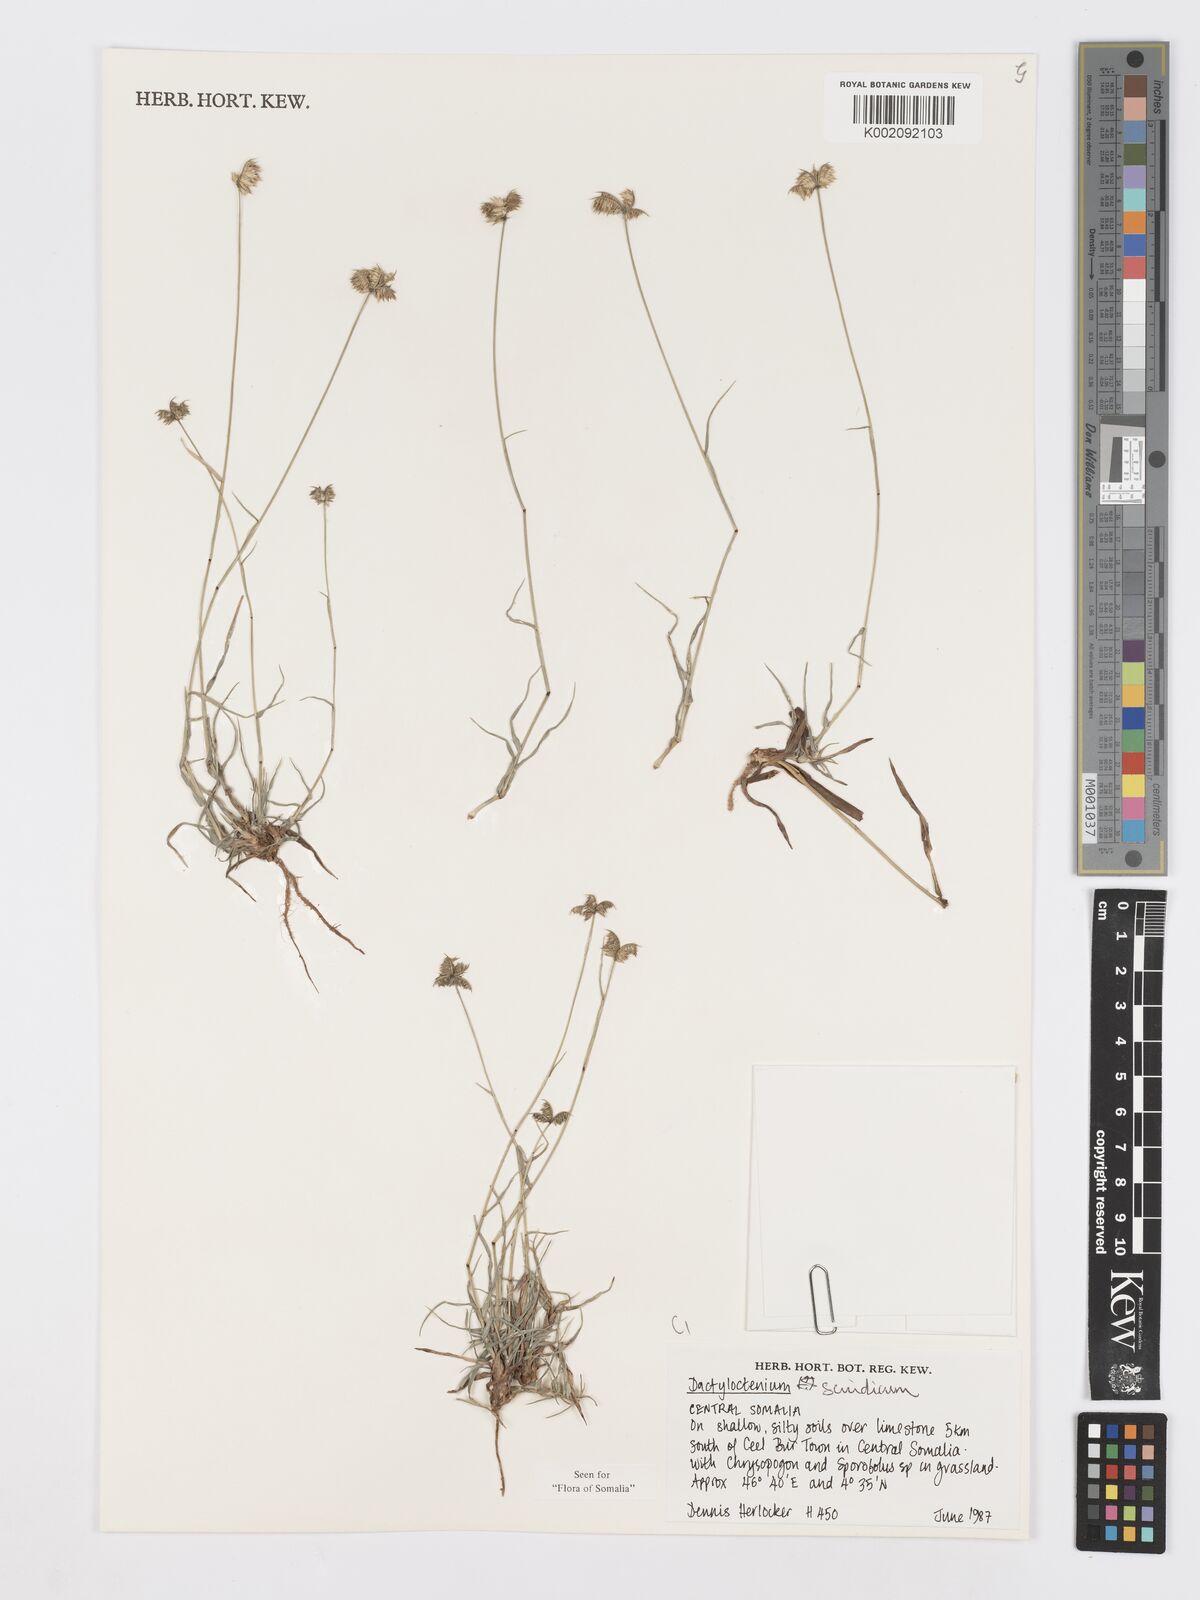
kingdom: Plantae
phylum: Tracheophyta
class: Liliopsida
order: Poales
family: Poaceae
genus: Dactyloctenium
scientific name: Dactyloctenium scindicum
